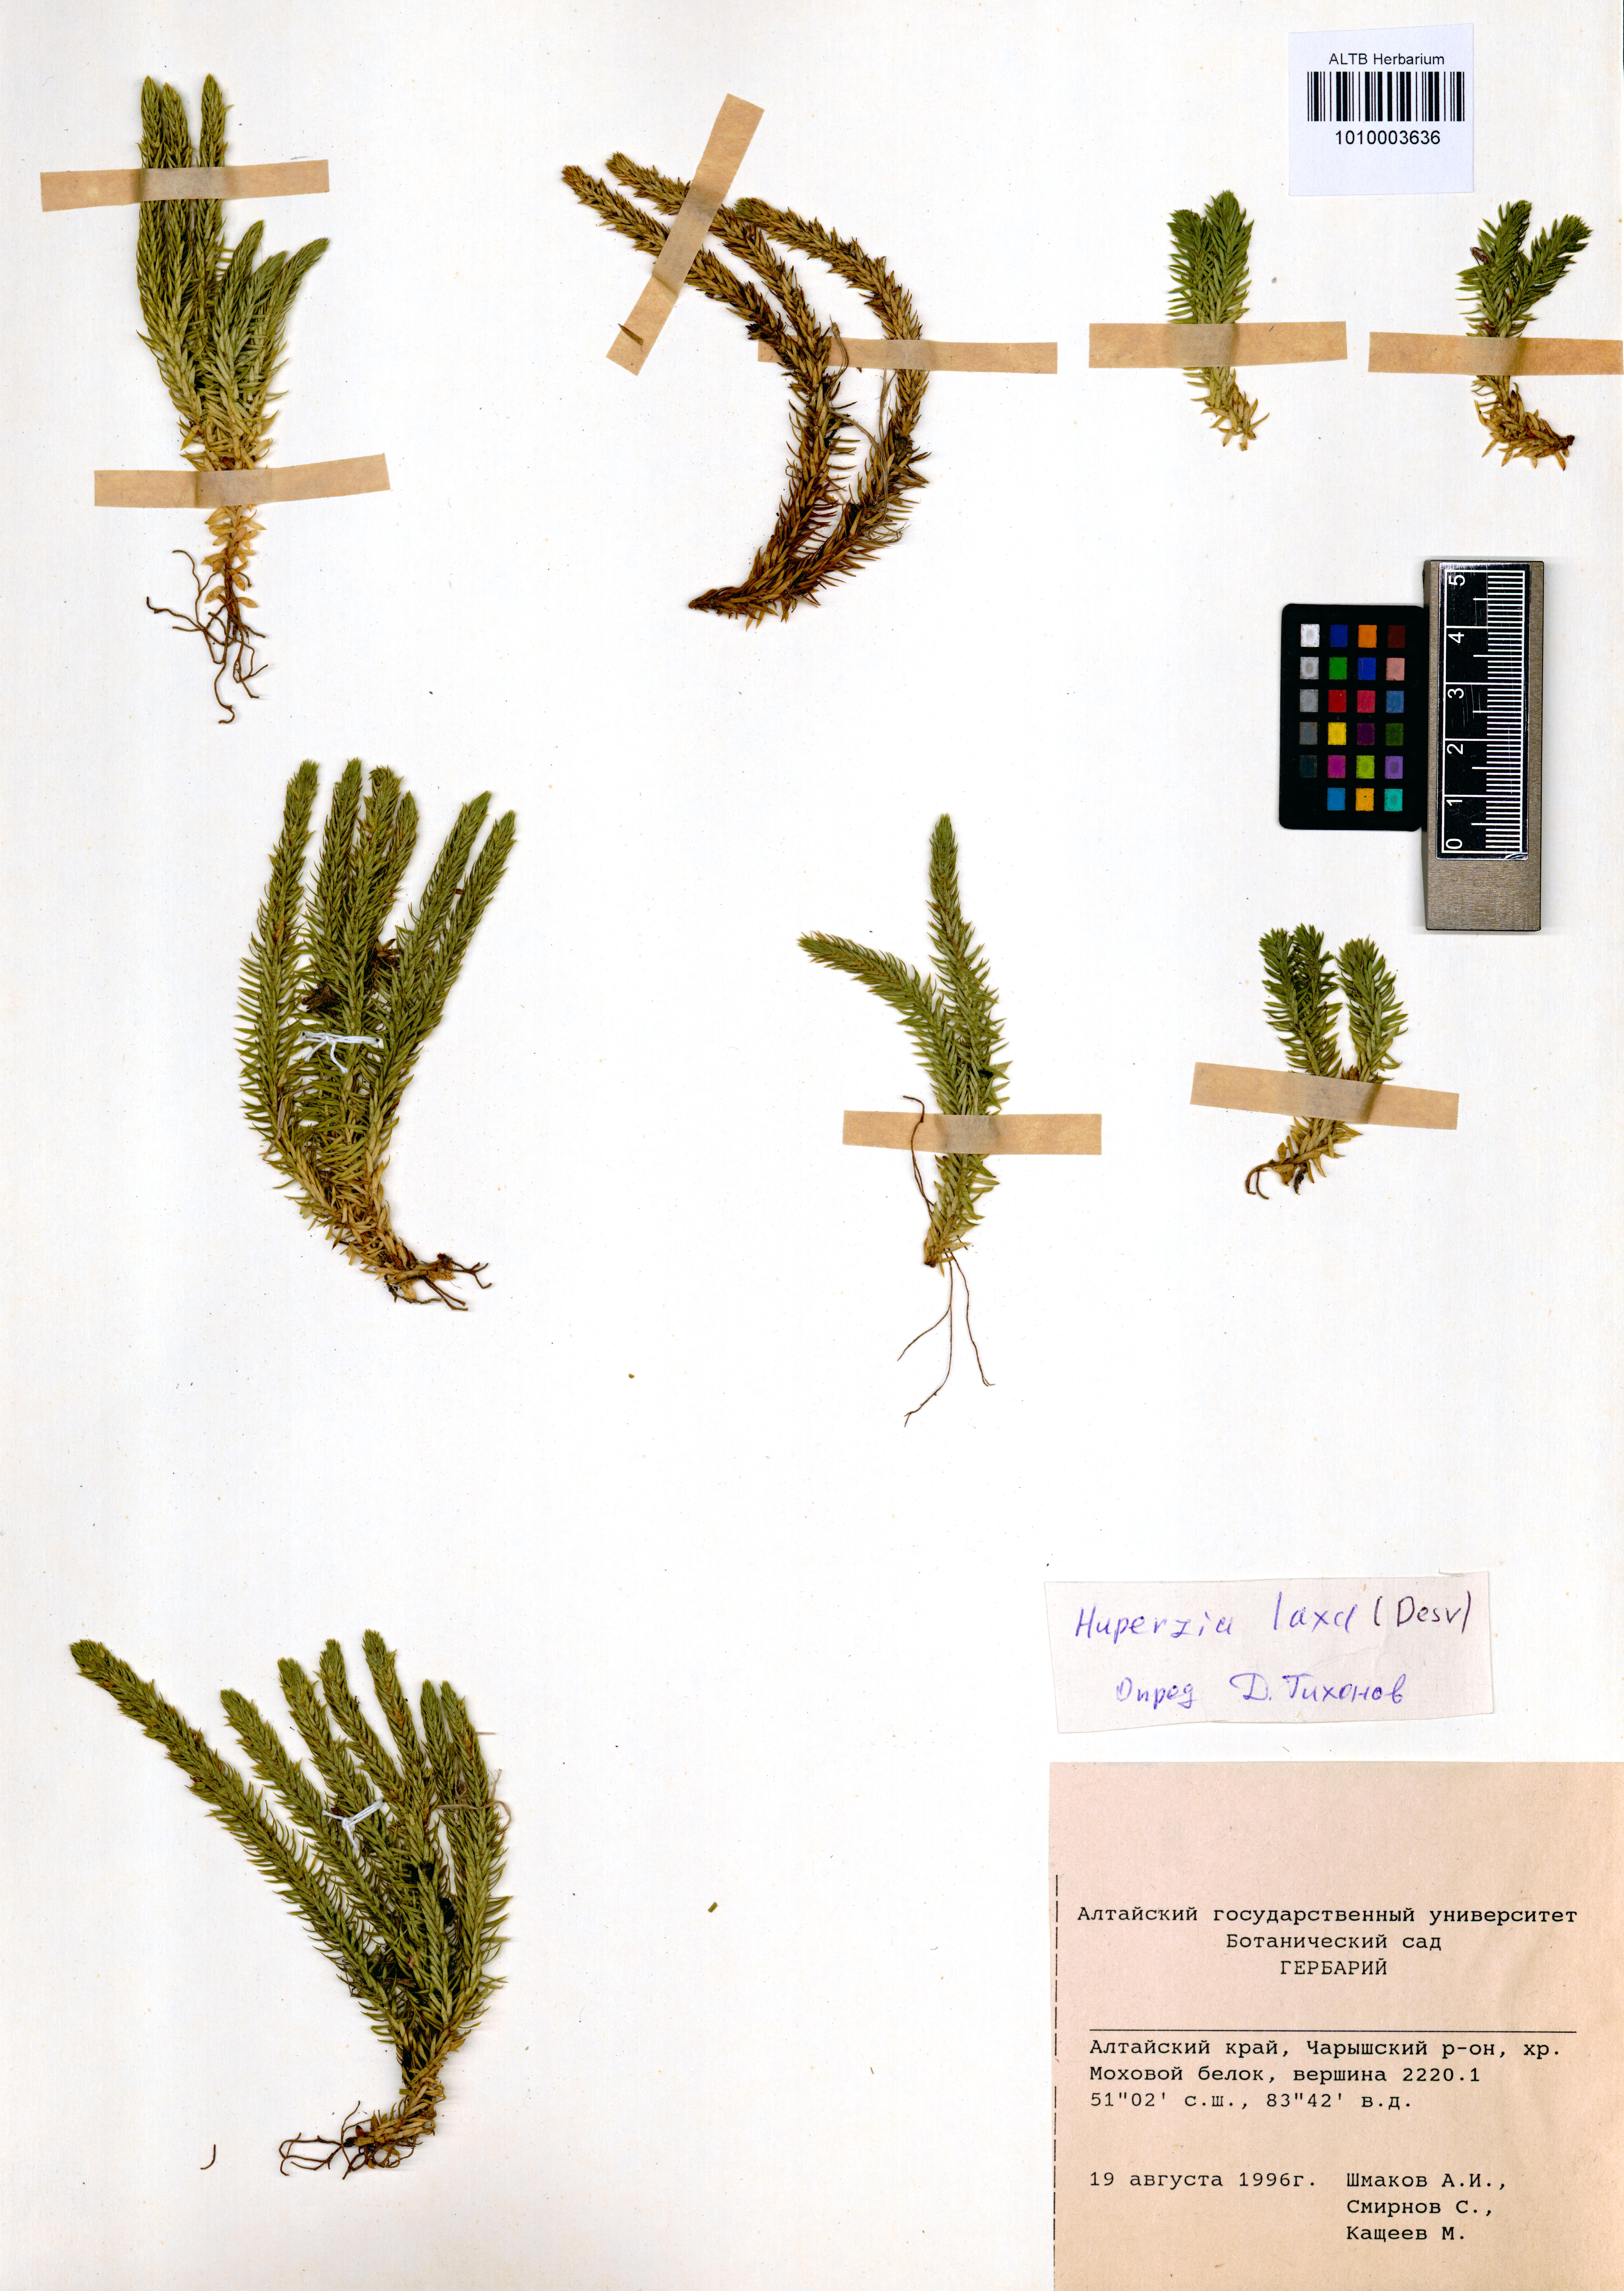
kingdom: Plantae
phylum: Tracheophyta
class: Lycopodiopsida
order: Lycopodiales
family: Lycopodiaceae
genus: Phlegmariurus
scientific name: Phlegmariurus carinatus
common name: Keeled tassel-fern
